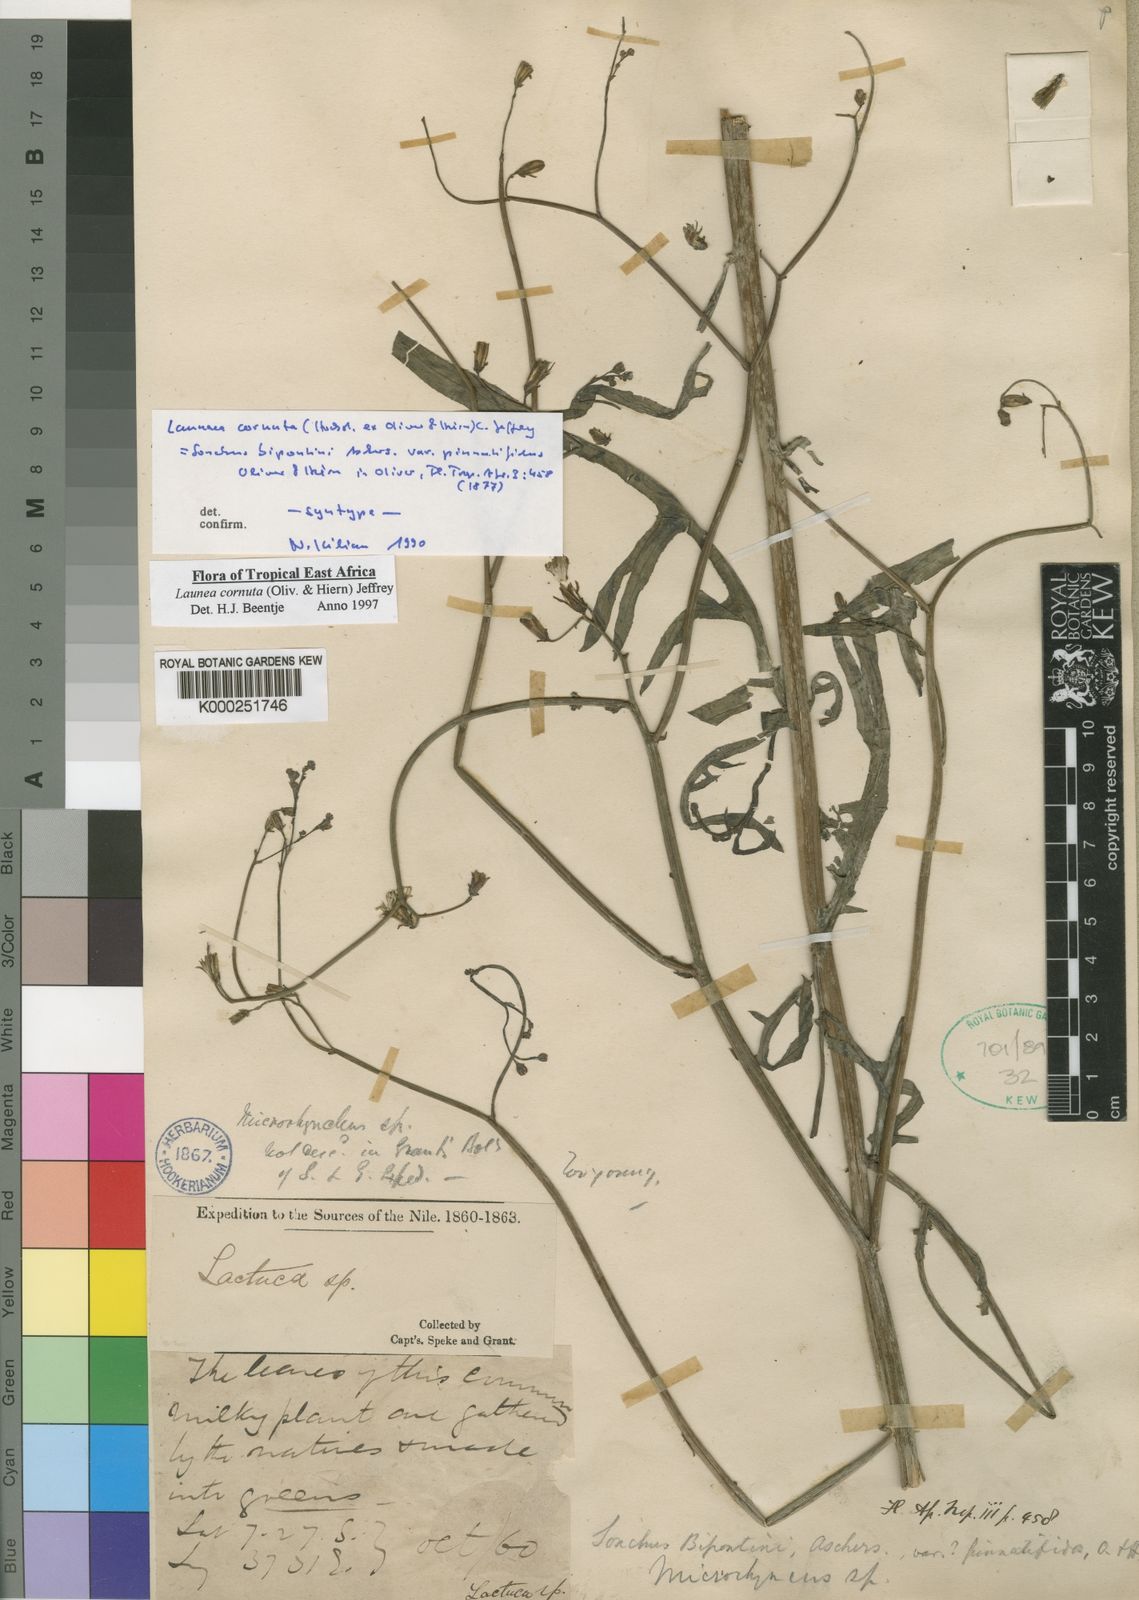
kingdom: Plantae
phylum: Tracheophyta
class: Magnoliopsida
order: Asterales
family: Asteraceae
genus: Launaea
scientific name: Launaea cornuta
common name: Bitter-lettuce
